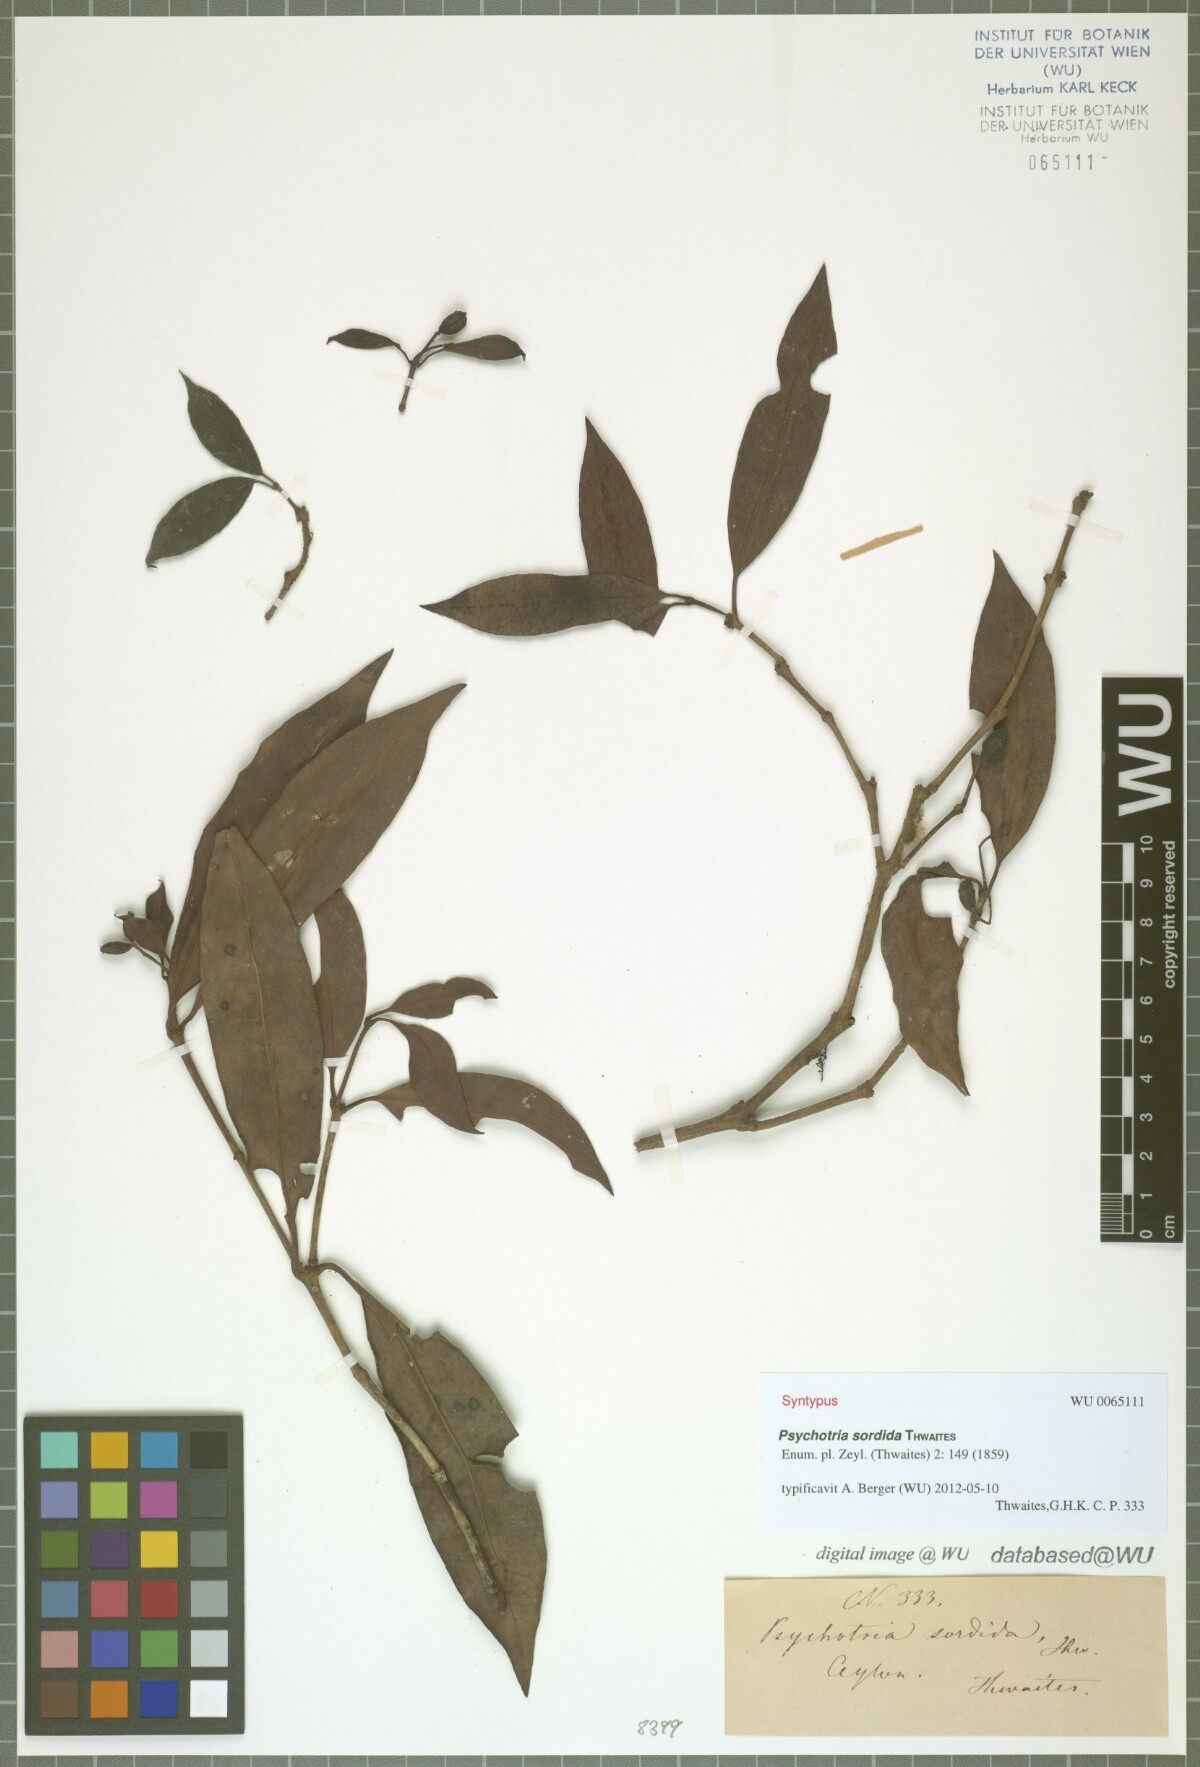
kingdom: Plantae
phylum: Tracheophyta
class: Magnoliopsida
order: Gentianales
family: Rubiaceae
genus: Psychotria
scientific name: Psychotria sordida
